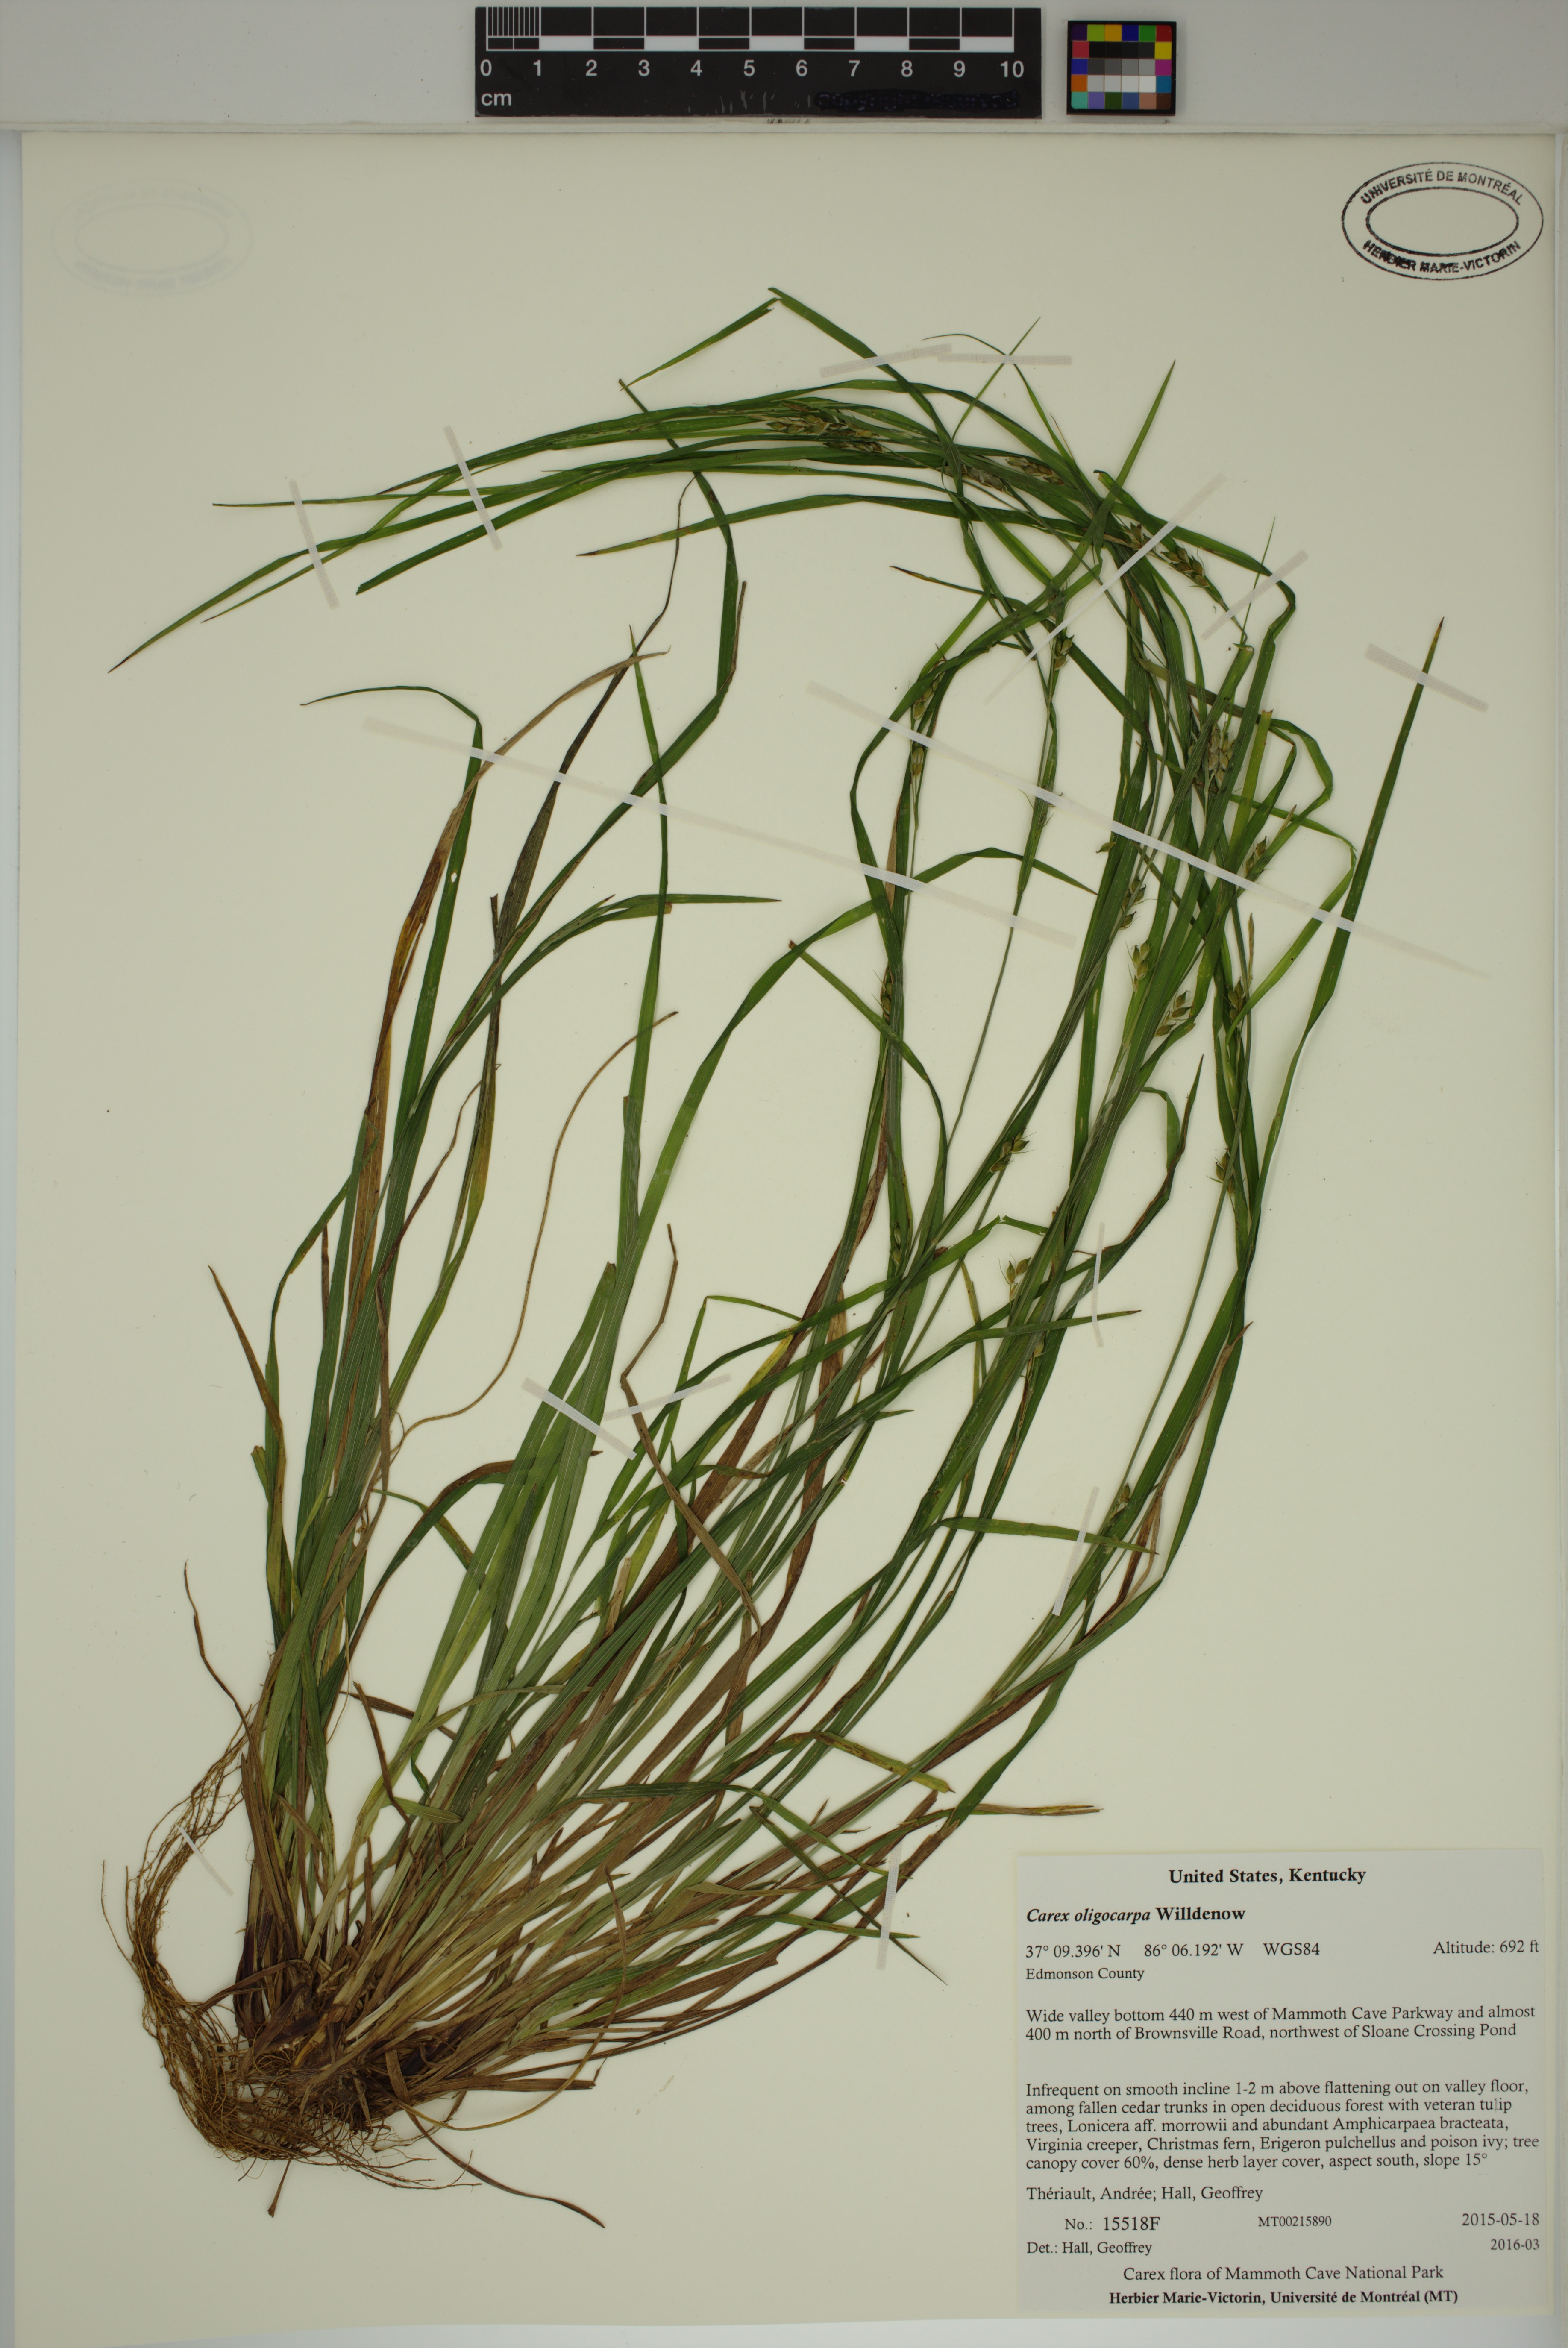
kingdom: Plantae
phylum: Tracheophyta
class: Liliopsida
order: Poales
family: Cyperaceae
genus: Carex
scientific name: Carex oligocarpa
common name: Eastern few-fruited sedge
